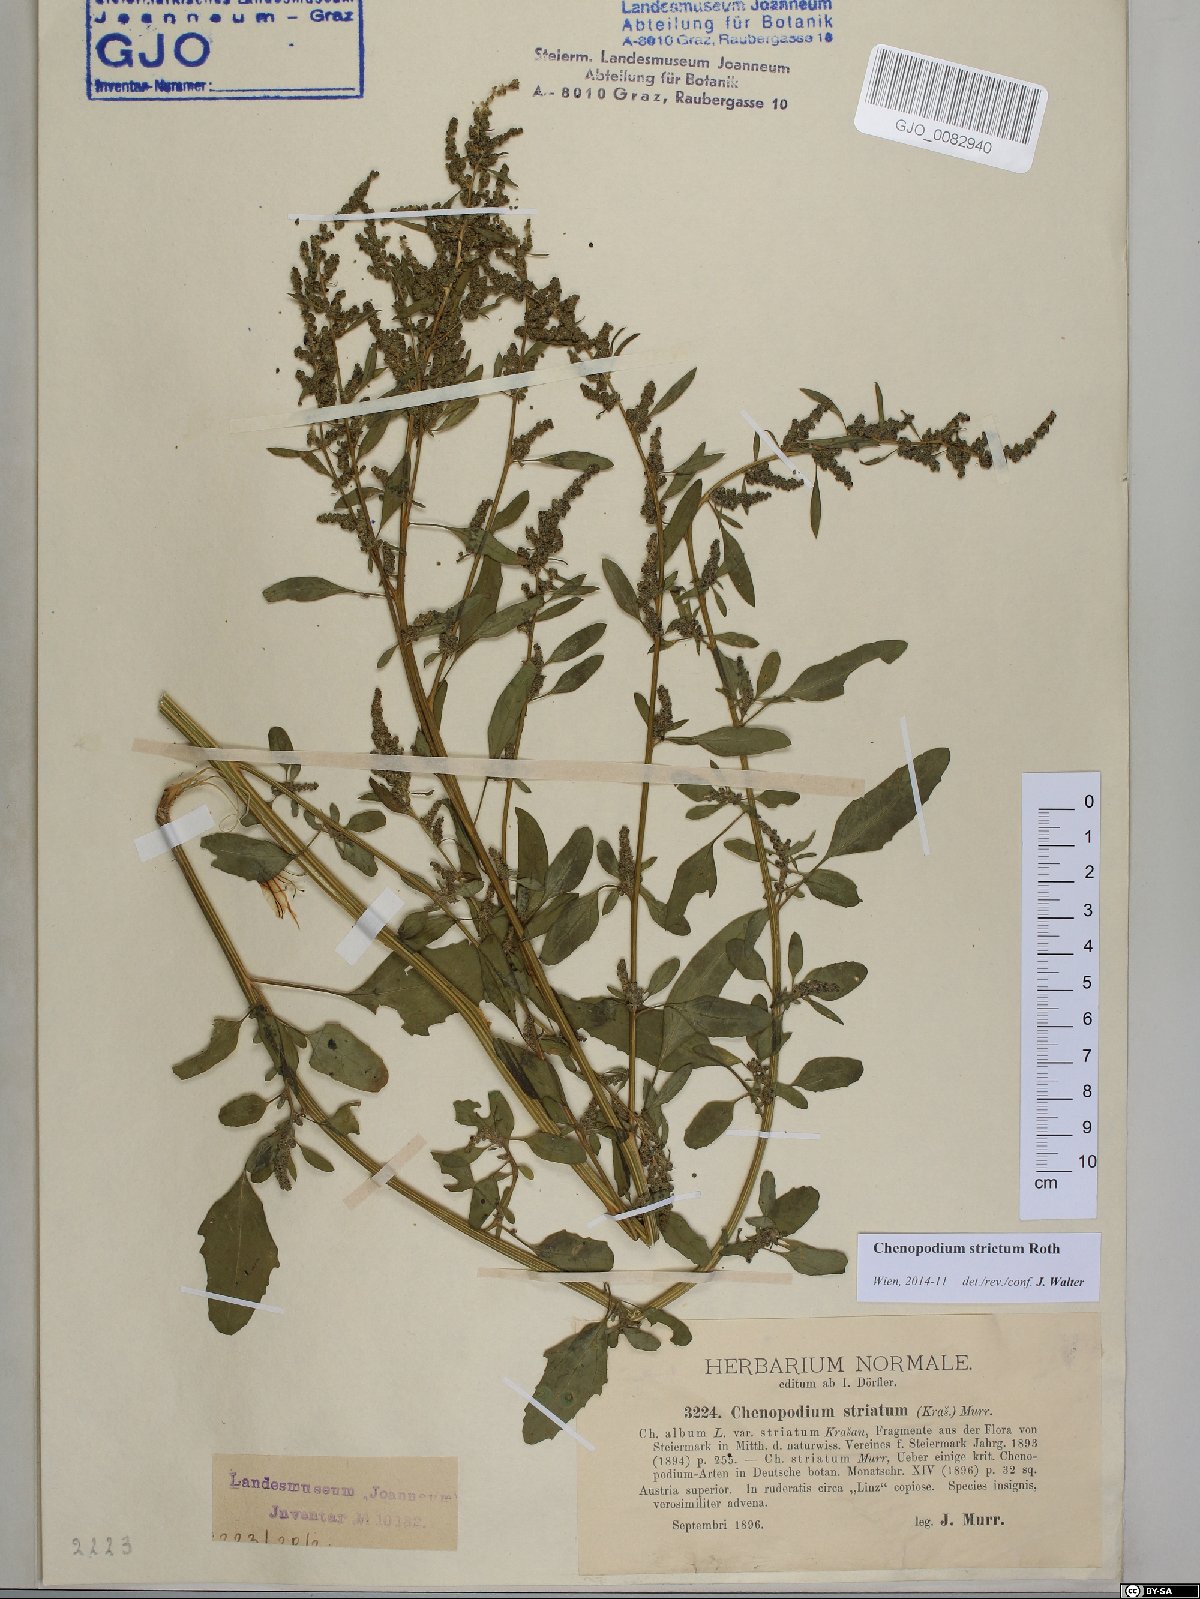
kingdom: Plantae
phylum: Tracheophyta
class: Magnoliopsida
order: Caryophyllales
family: Amaranthaceae
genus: Chenopodium
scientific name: Chenopodium album
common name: Fat-hen
